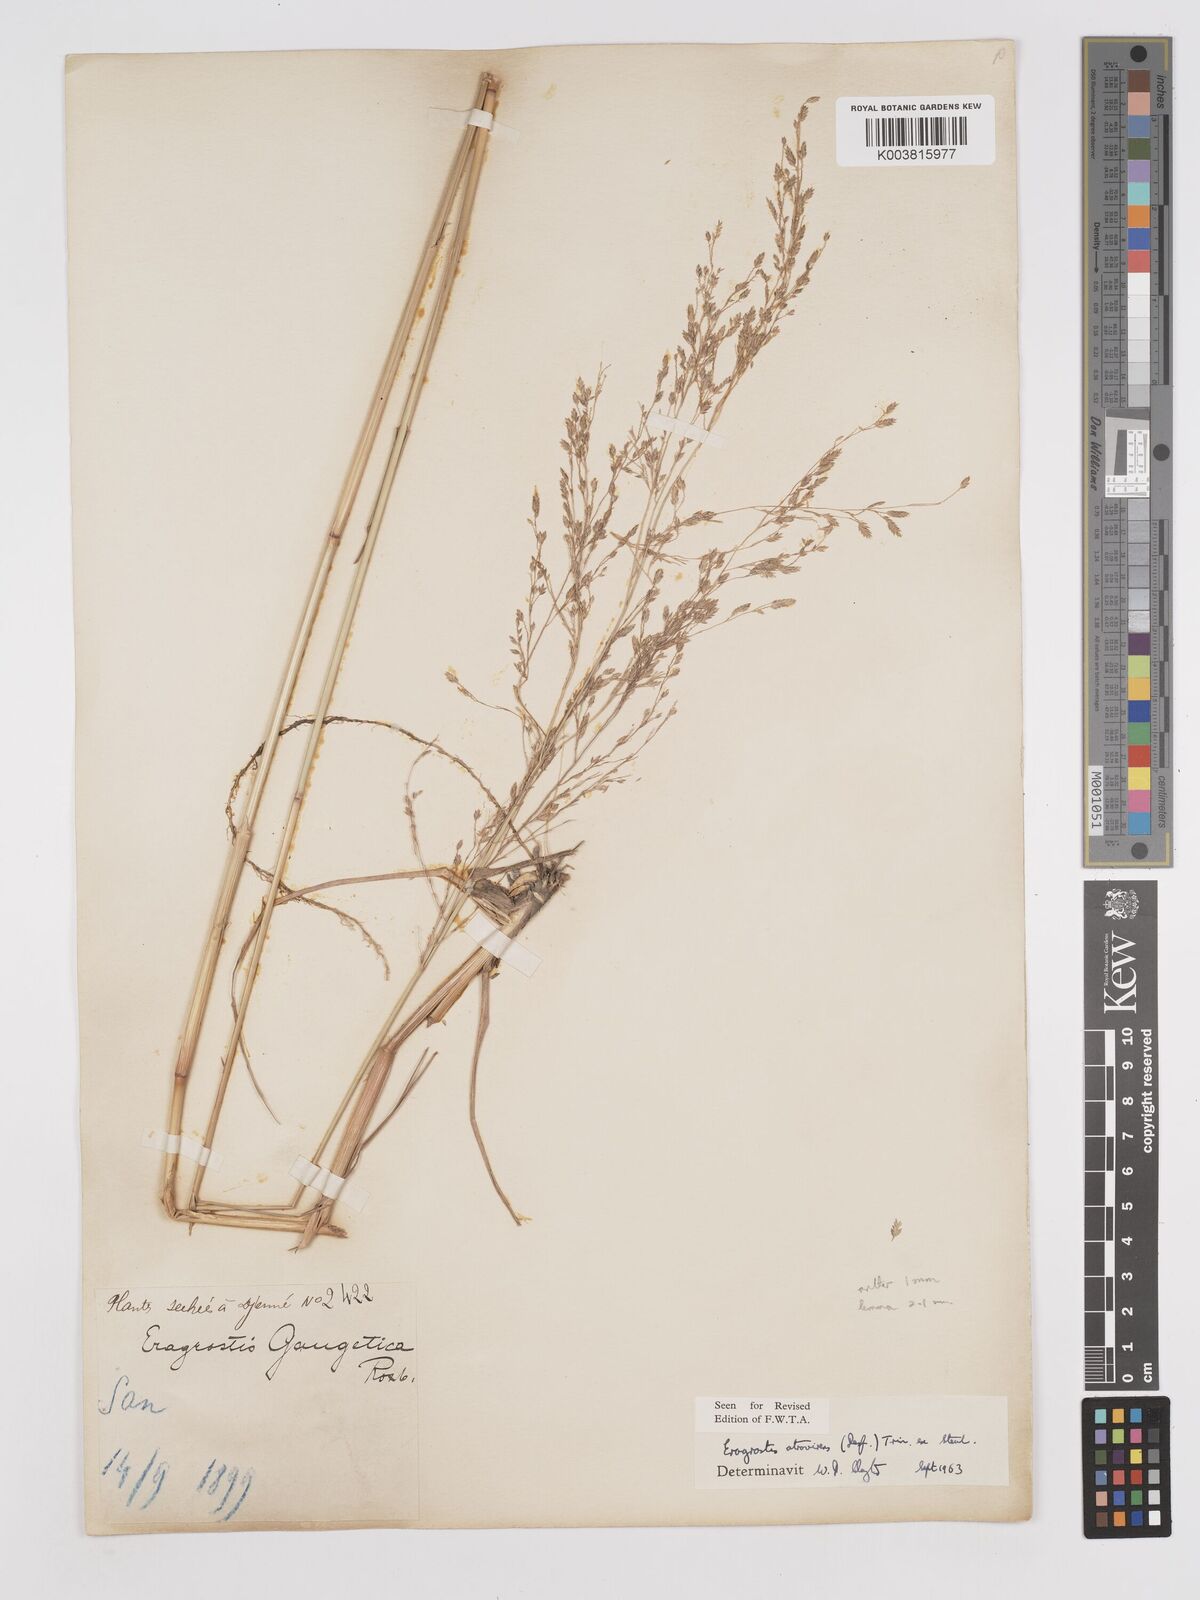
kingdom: Plantae
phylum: Tracheophyta
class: Liliopsida
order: Poales
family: Poaceae
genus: Eragrostis
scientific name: Eragrostis atrovirens
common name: Thalia lovegrass
